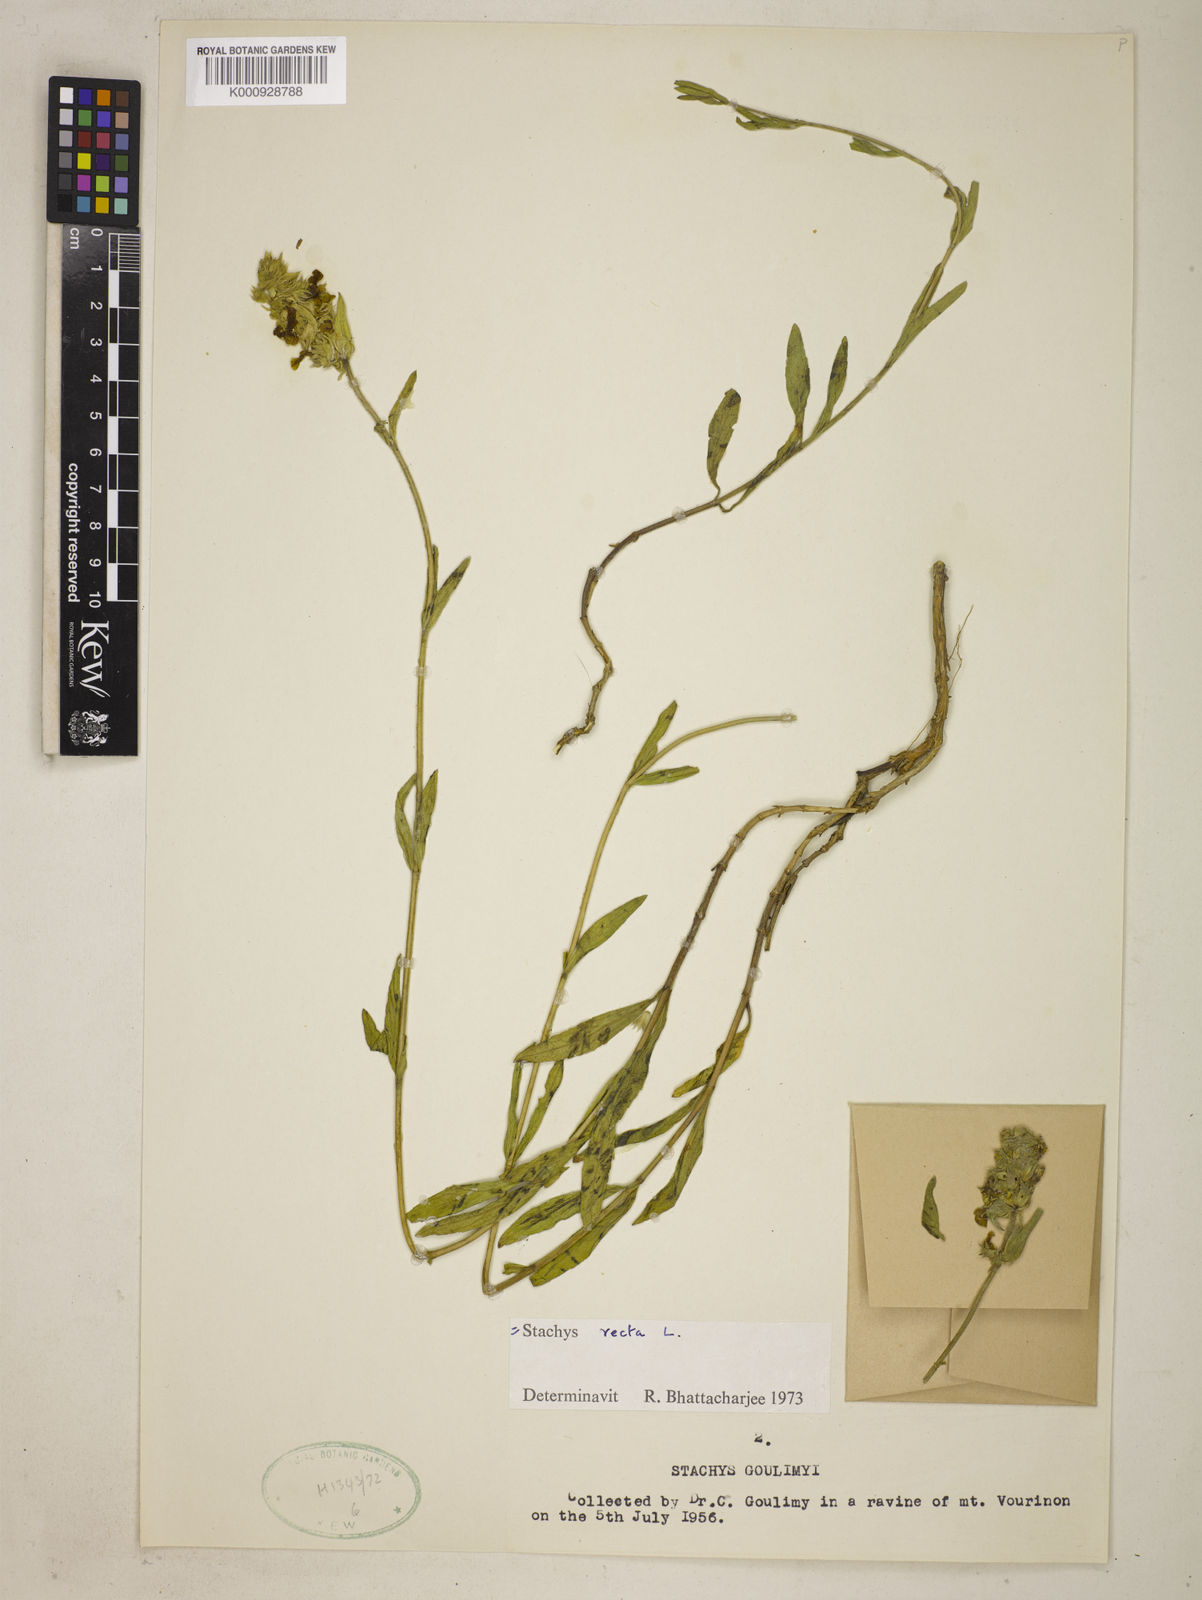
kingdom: Plantae
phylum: Tracheophyta
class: Magnoliopsida
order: Lamiales
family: Lamiaceae
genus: Stachys
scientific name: Stachys recta
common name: Perennial yellow-woundwort
